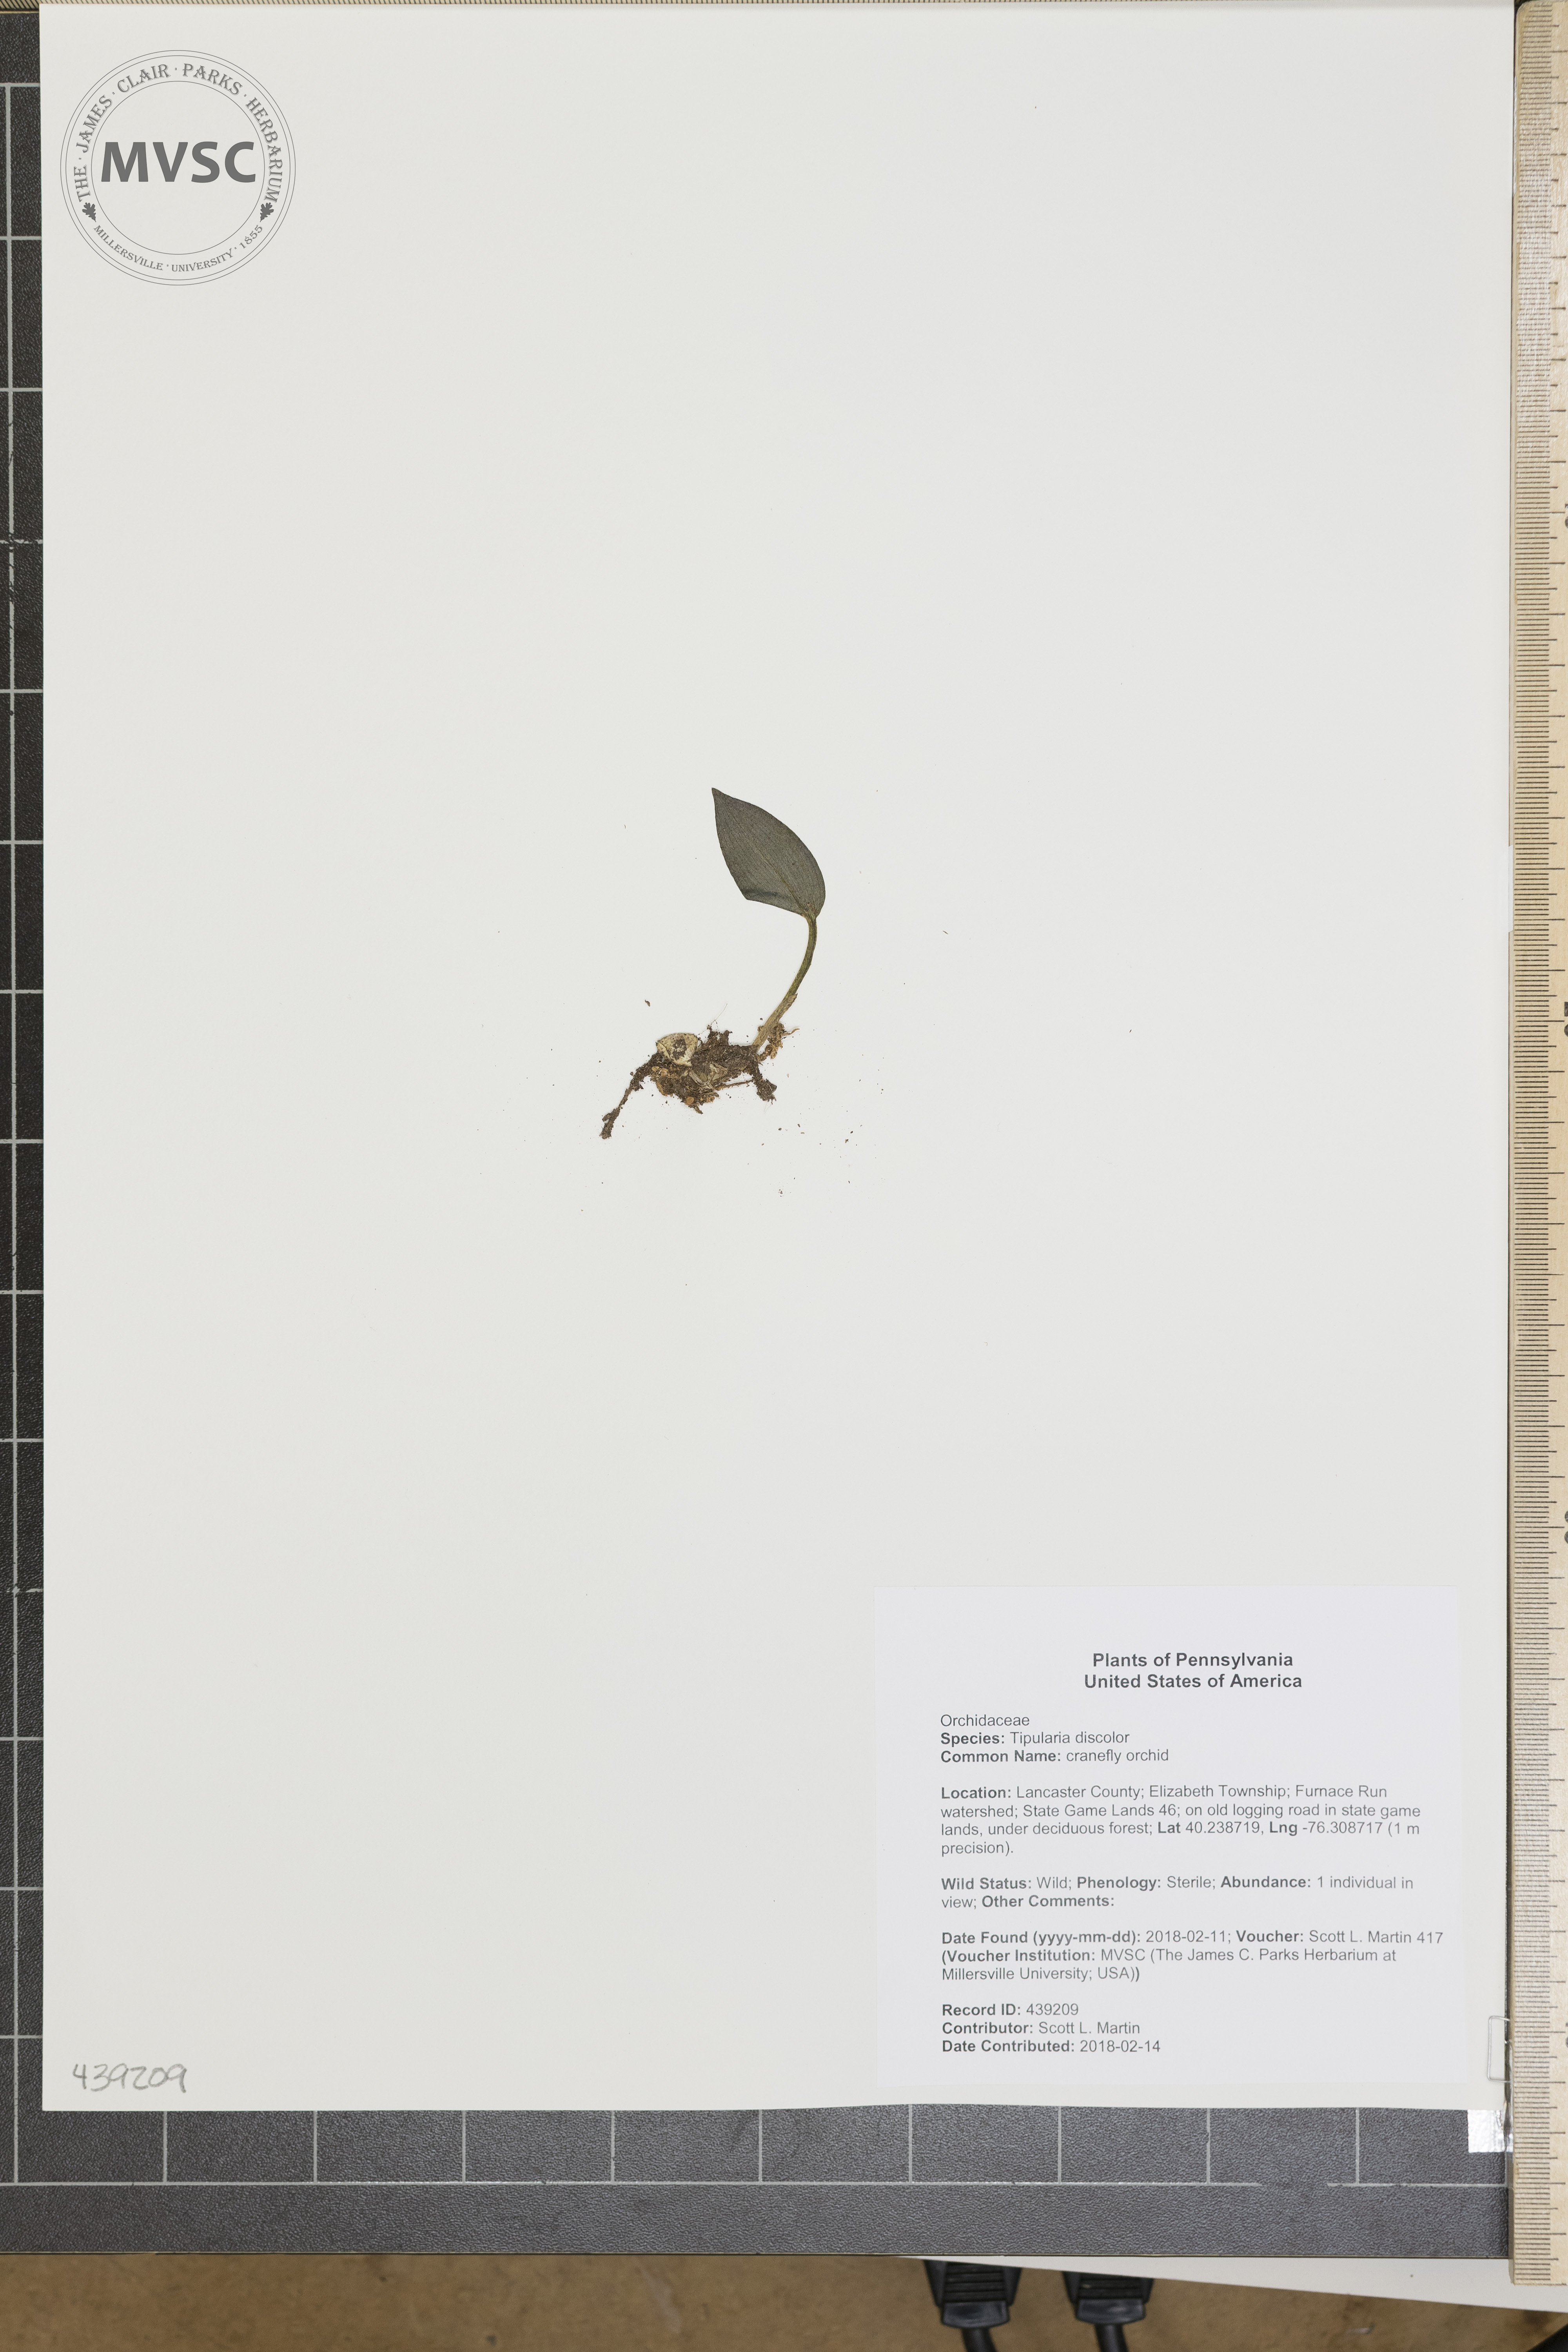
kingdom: Plantae
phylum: Tracheophyta
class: Liliopsida
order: Asparagales
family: Orchidaceae
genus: Tipularia
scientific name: Tipularia discolor
